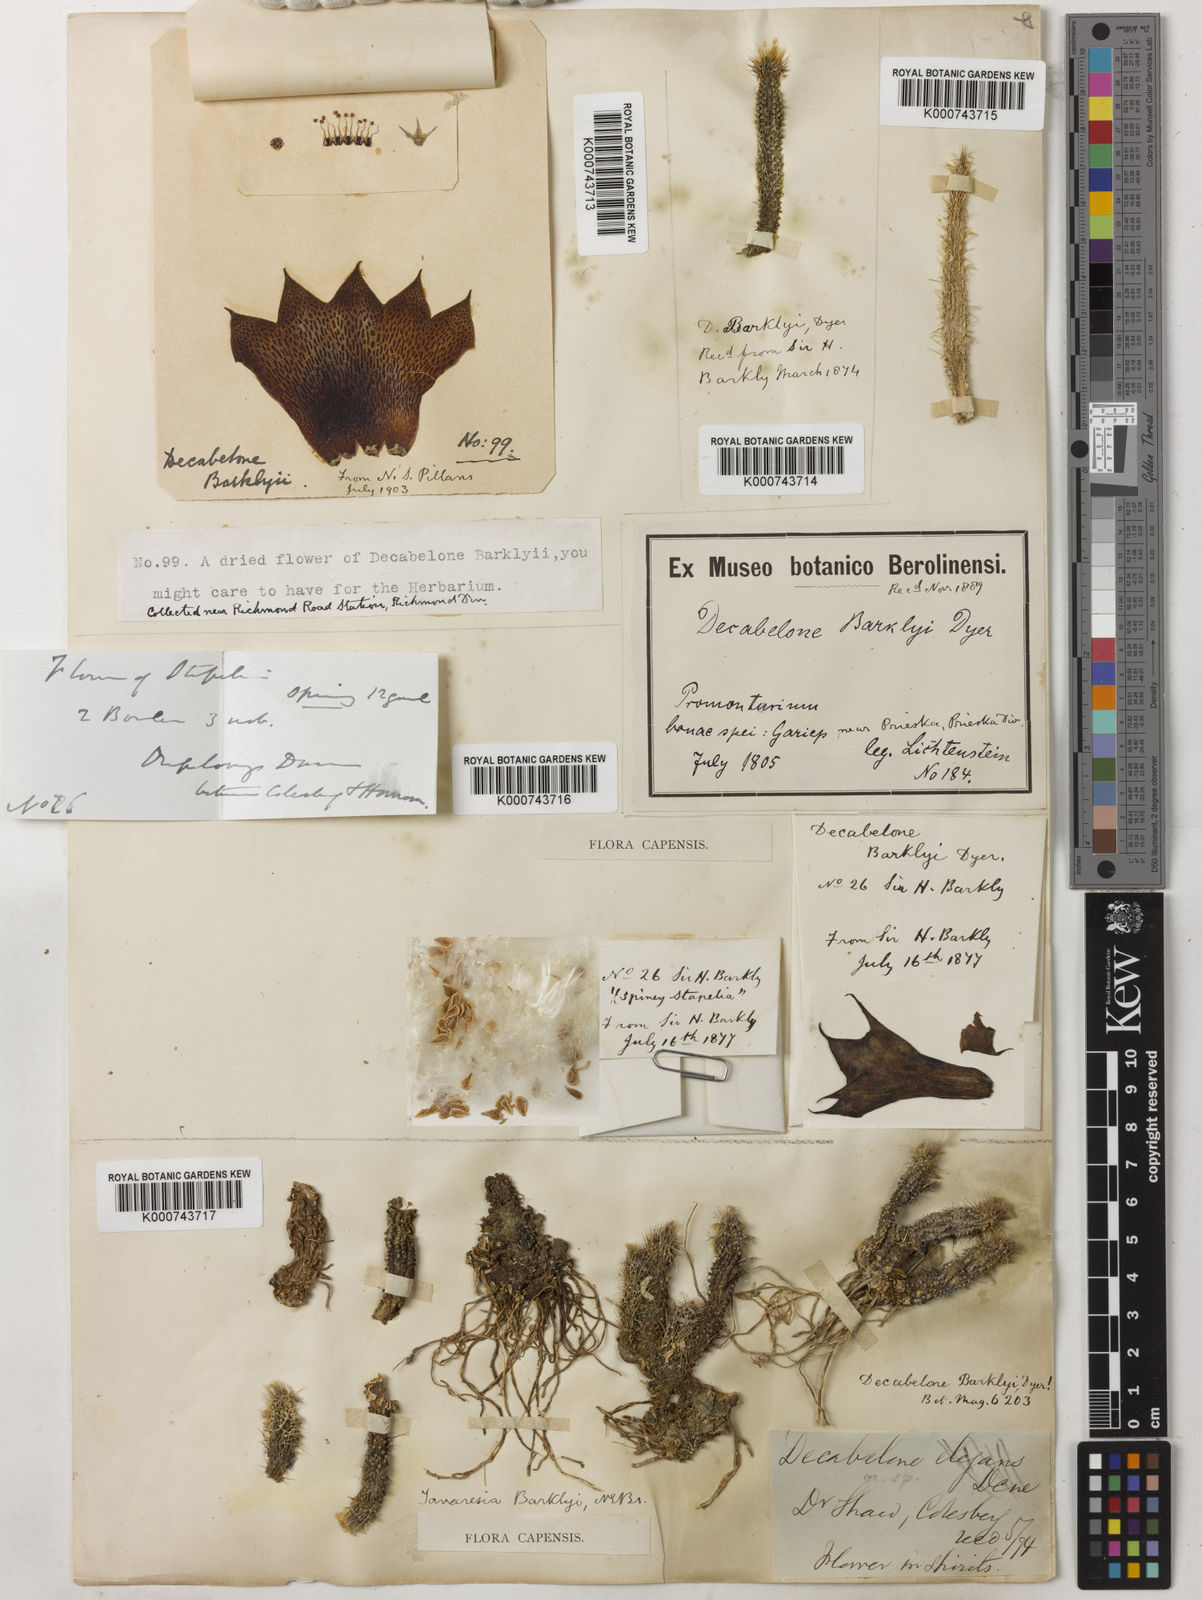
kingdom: Plantae
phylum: Tracheophyta
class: Magnoliopsida
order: Gentianales
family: Apocynaceae
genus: Ceropegia
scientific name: Ceropegia barklyana
